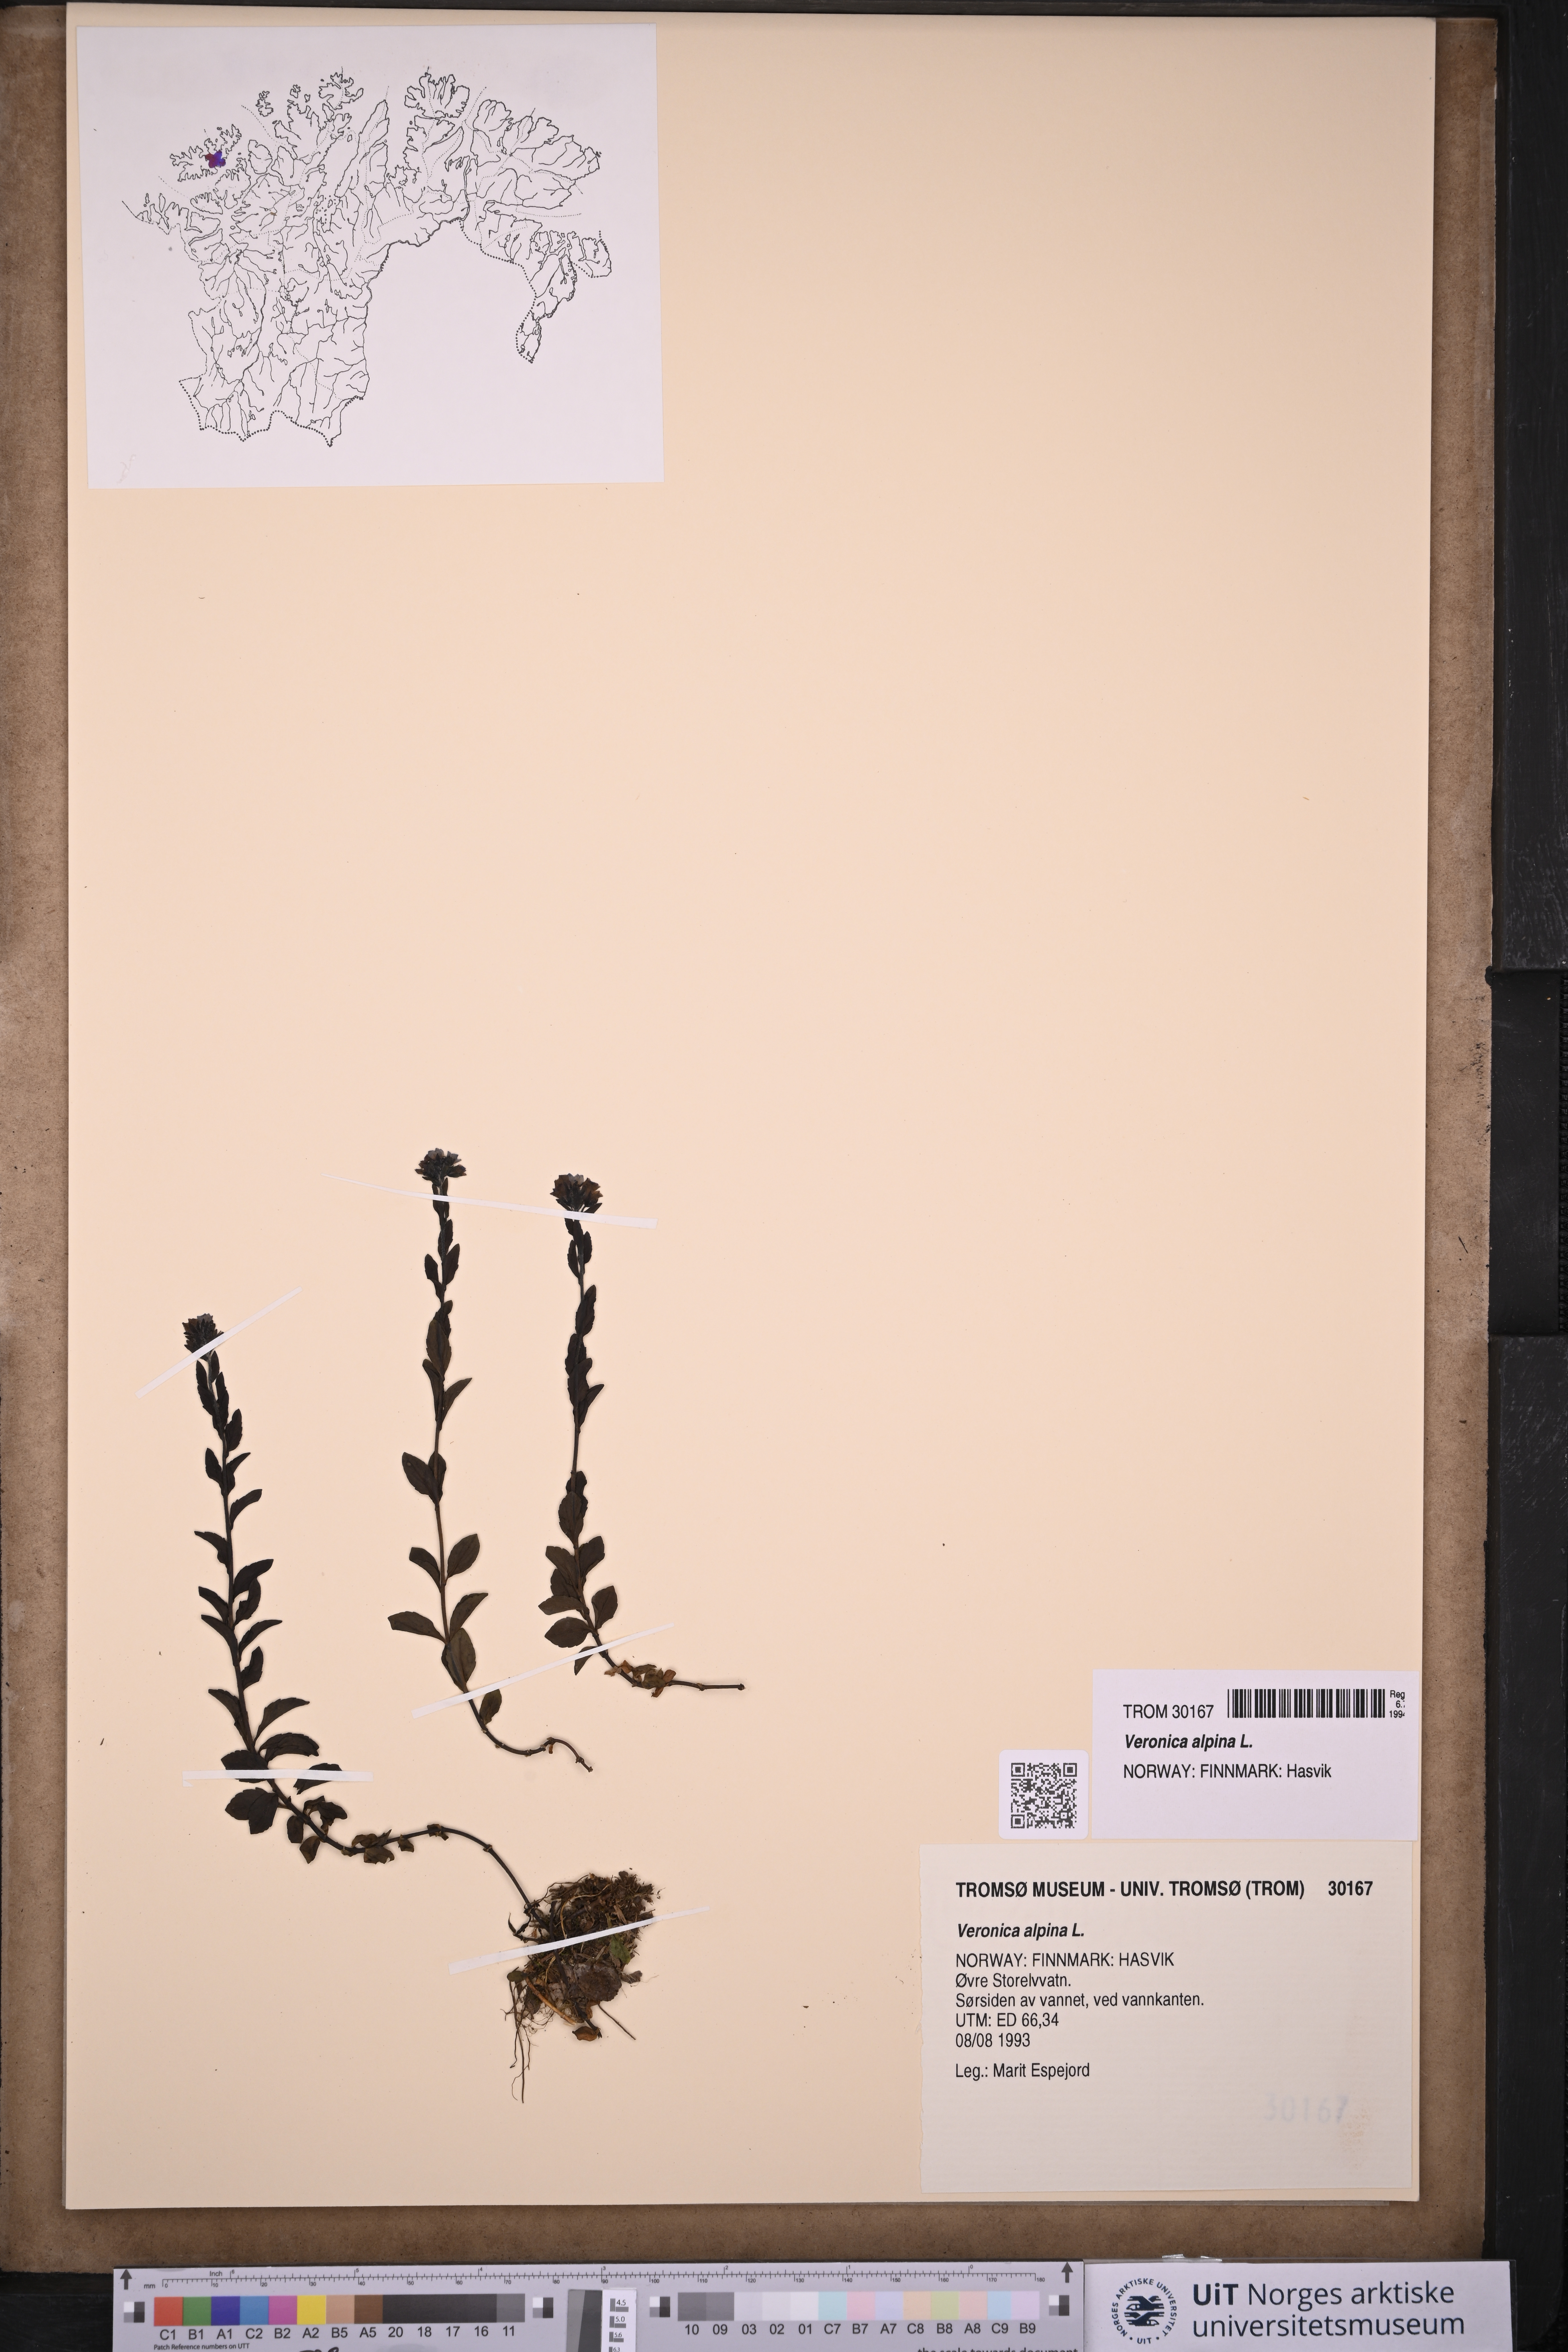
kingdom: Plantae
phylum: Tracheophyta
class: Magnoliopsida
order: Lamiales
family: Plantaginaceae
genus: Veronica
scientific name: Veronica alpina
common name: Alpine speedwell
